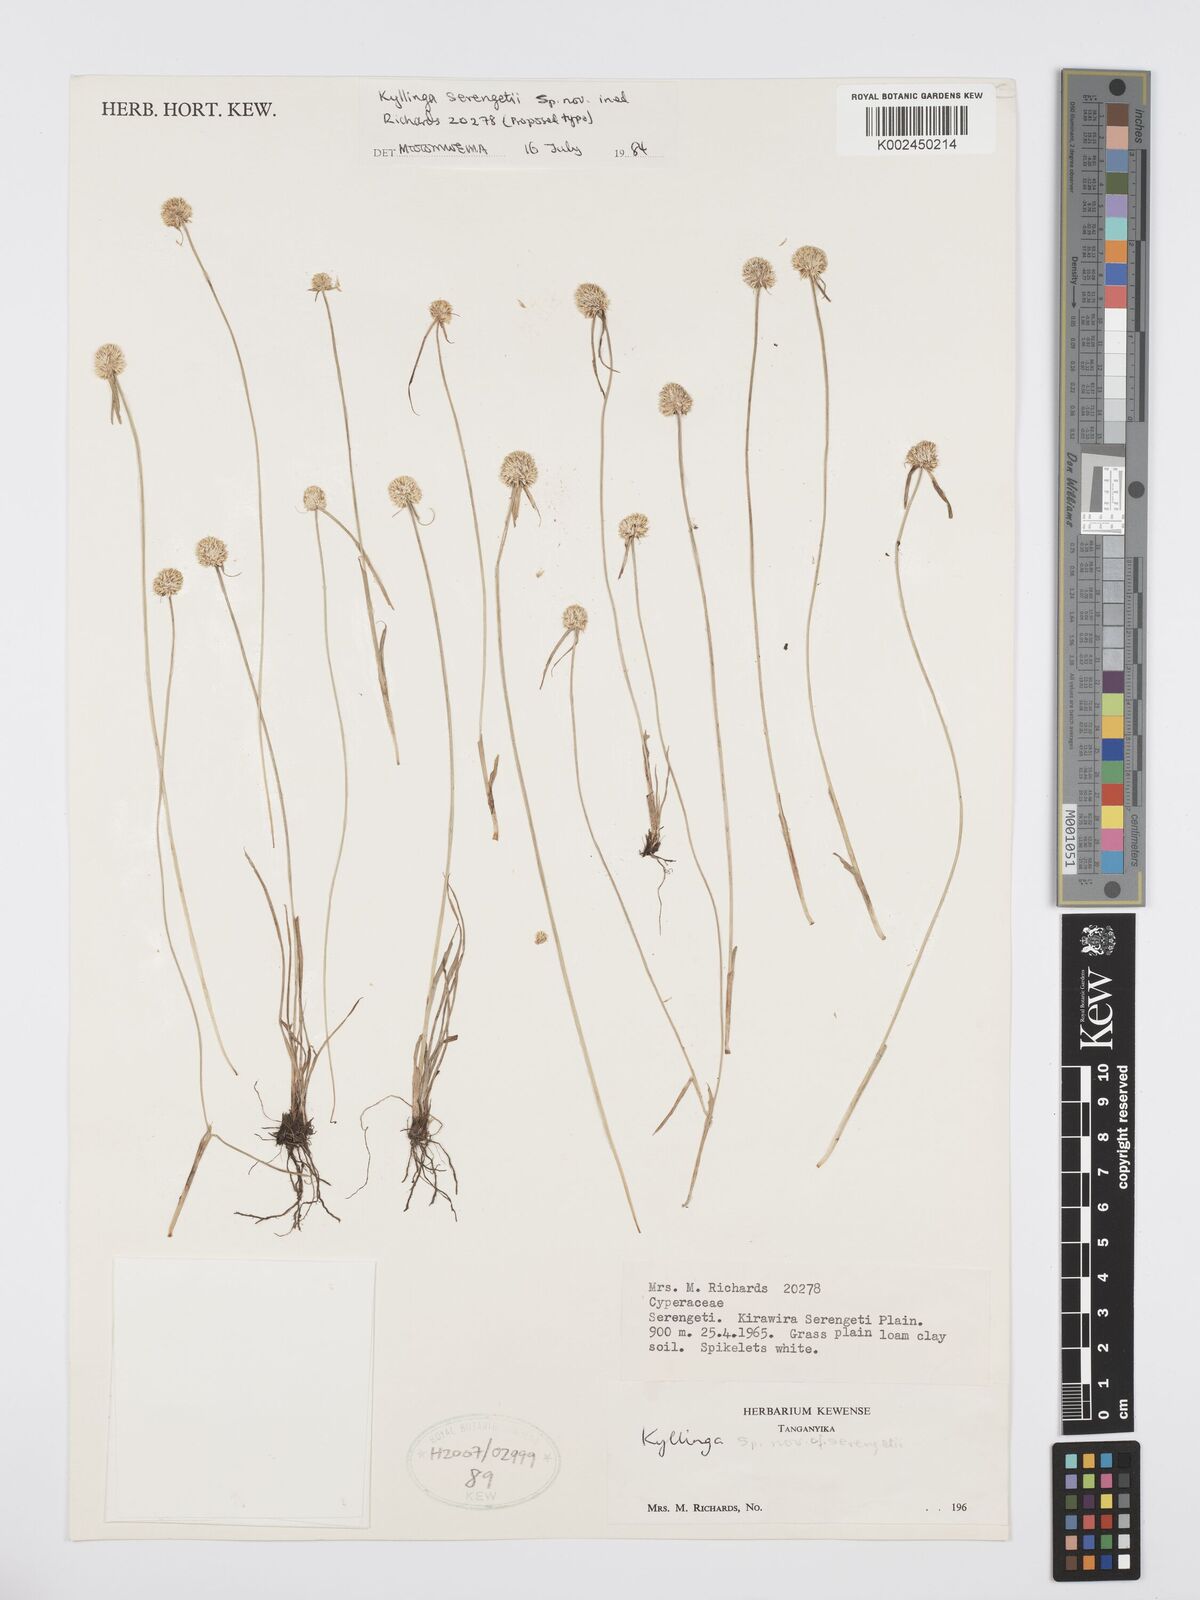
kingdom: Plantae
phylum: Tracheophyta
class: Liliopsida
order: Poales
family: Cyperaceae
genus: Cyperus
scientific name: Cyperus
